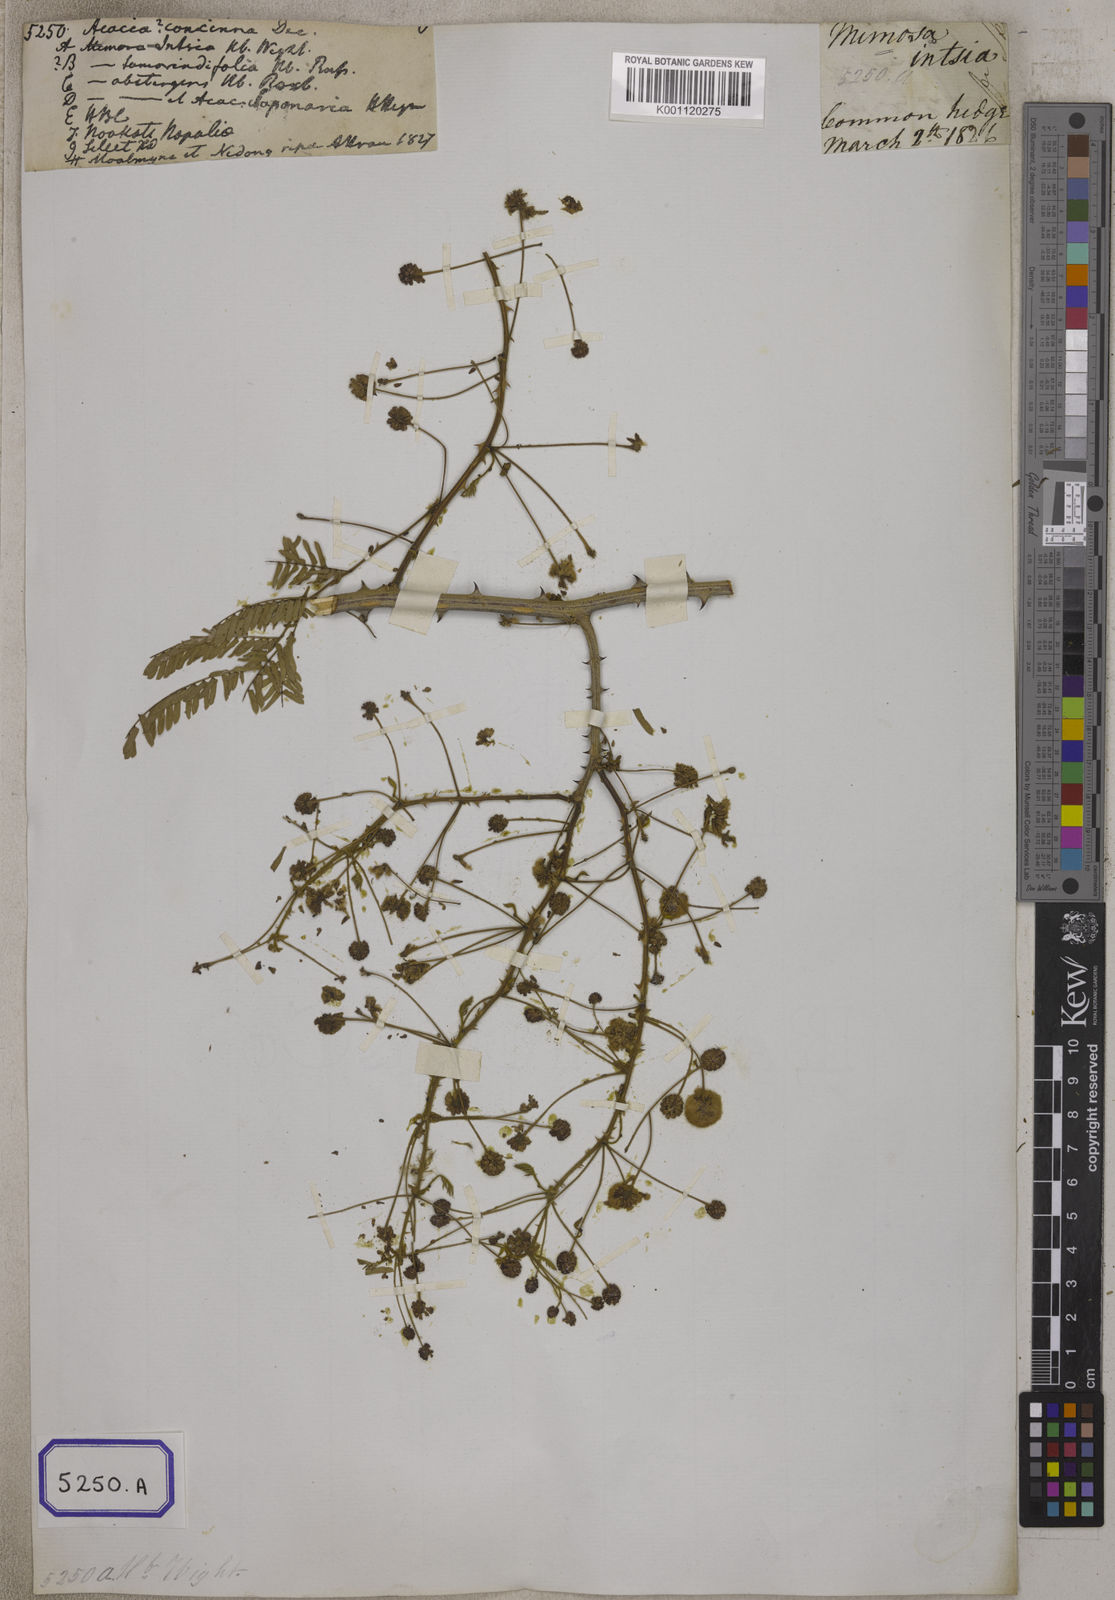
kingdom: Plantae
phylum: Tracheophyta
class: Magnoliopsida
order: Fabales
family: Fabaceae
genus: Senegalia
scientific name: Senegalia rugata
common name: Soap-pod
